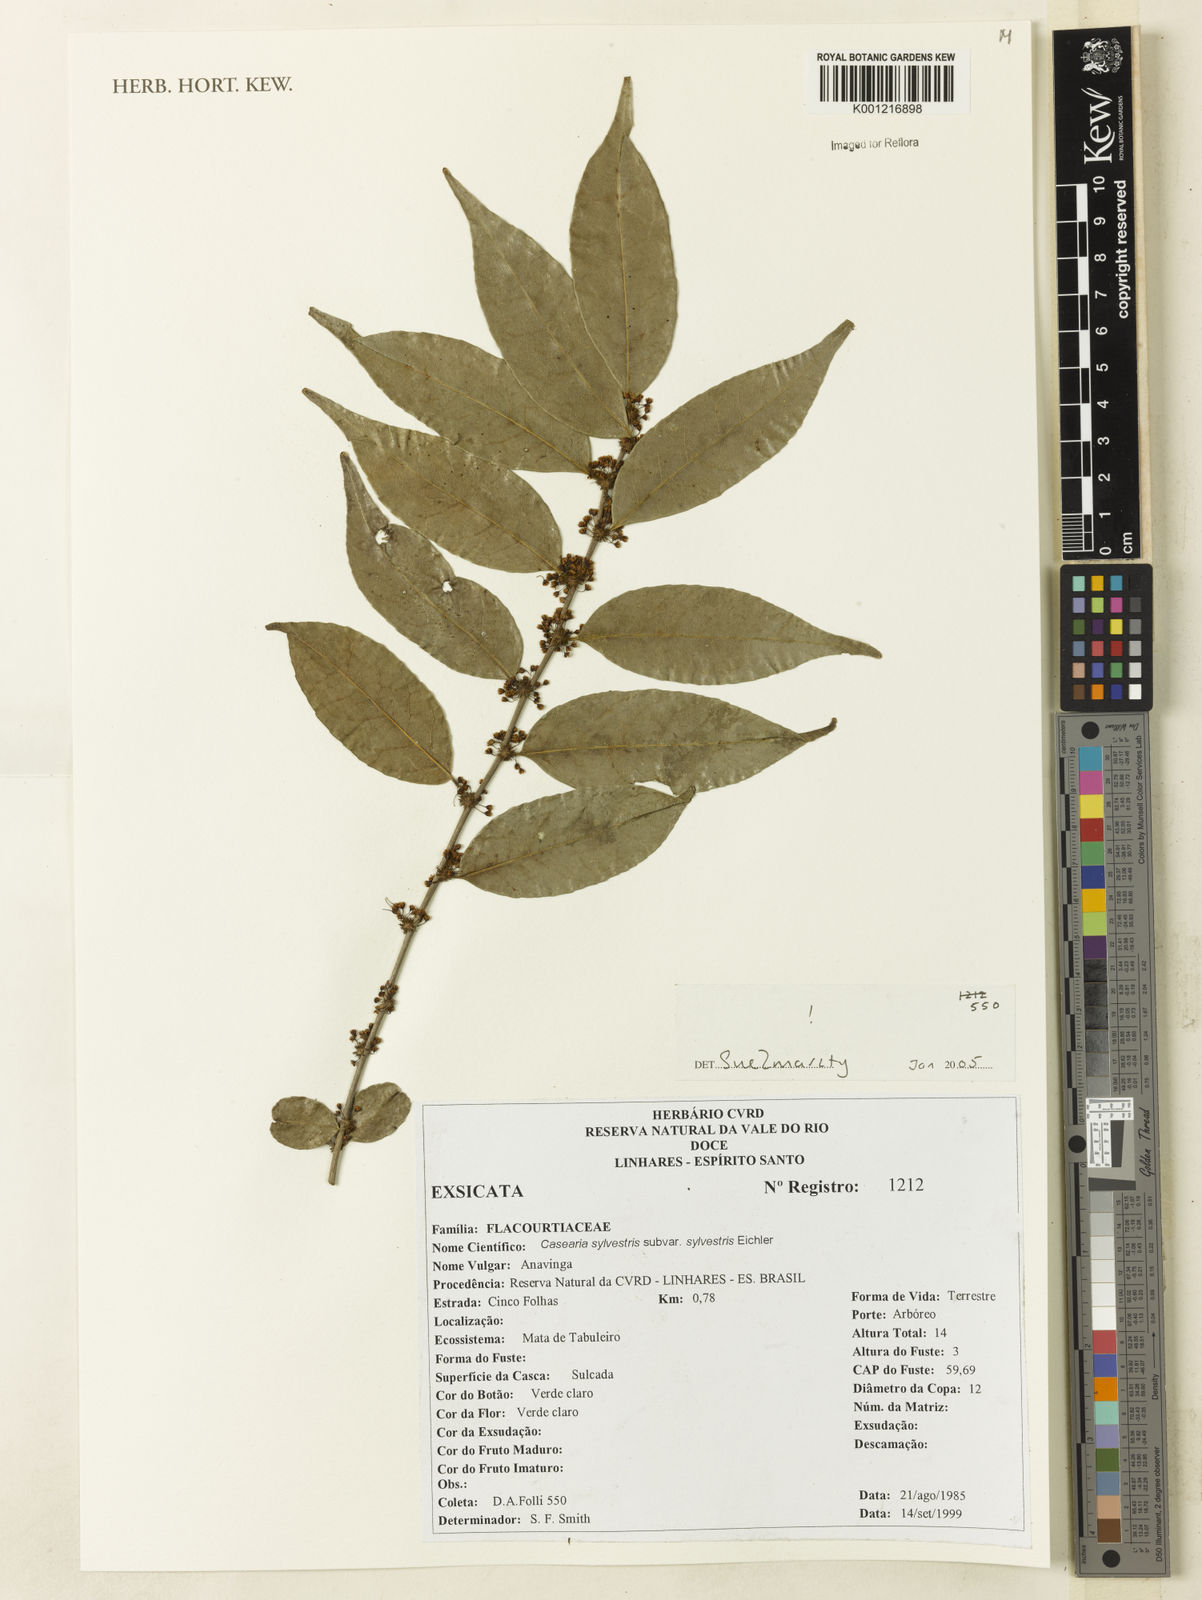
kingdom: Plantae
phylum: Tracheophyta
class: Magnoliopsida
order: Malpighiales
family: Salicaceae
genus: Casearia
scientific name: Casearia sylvestris
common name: Wild sage
